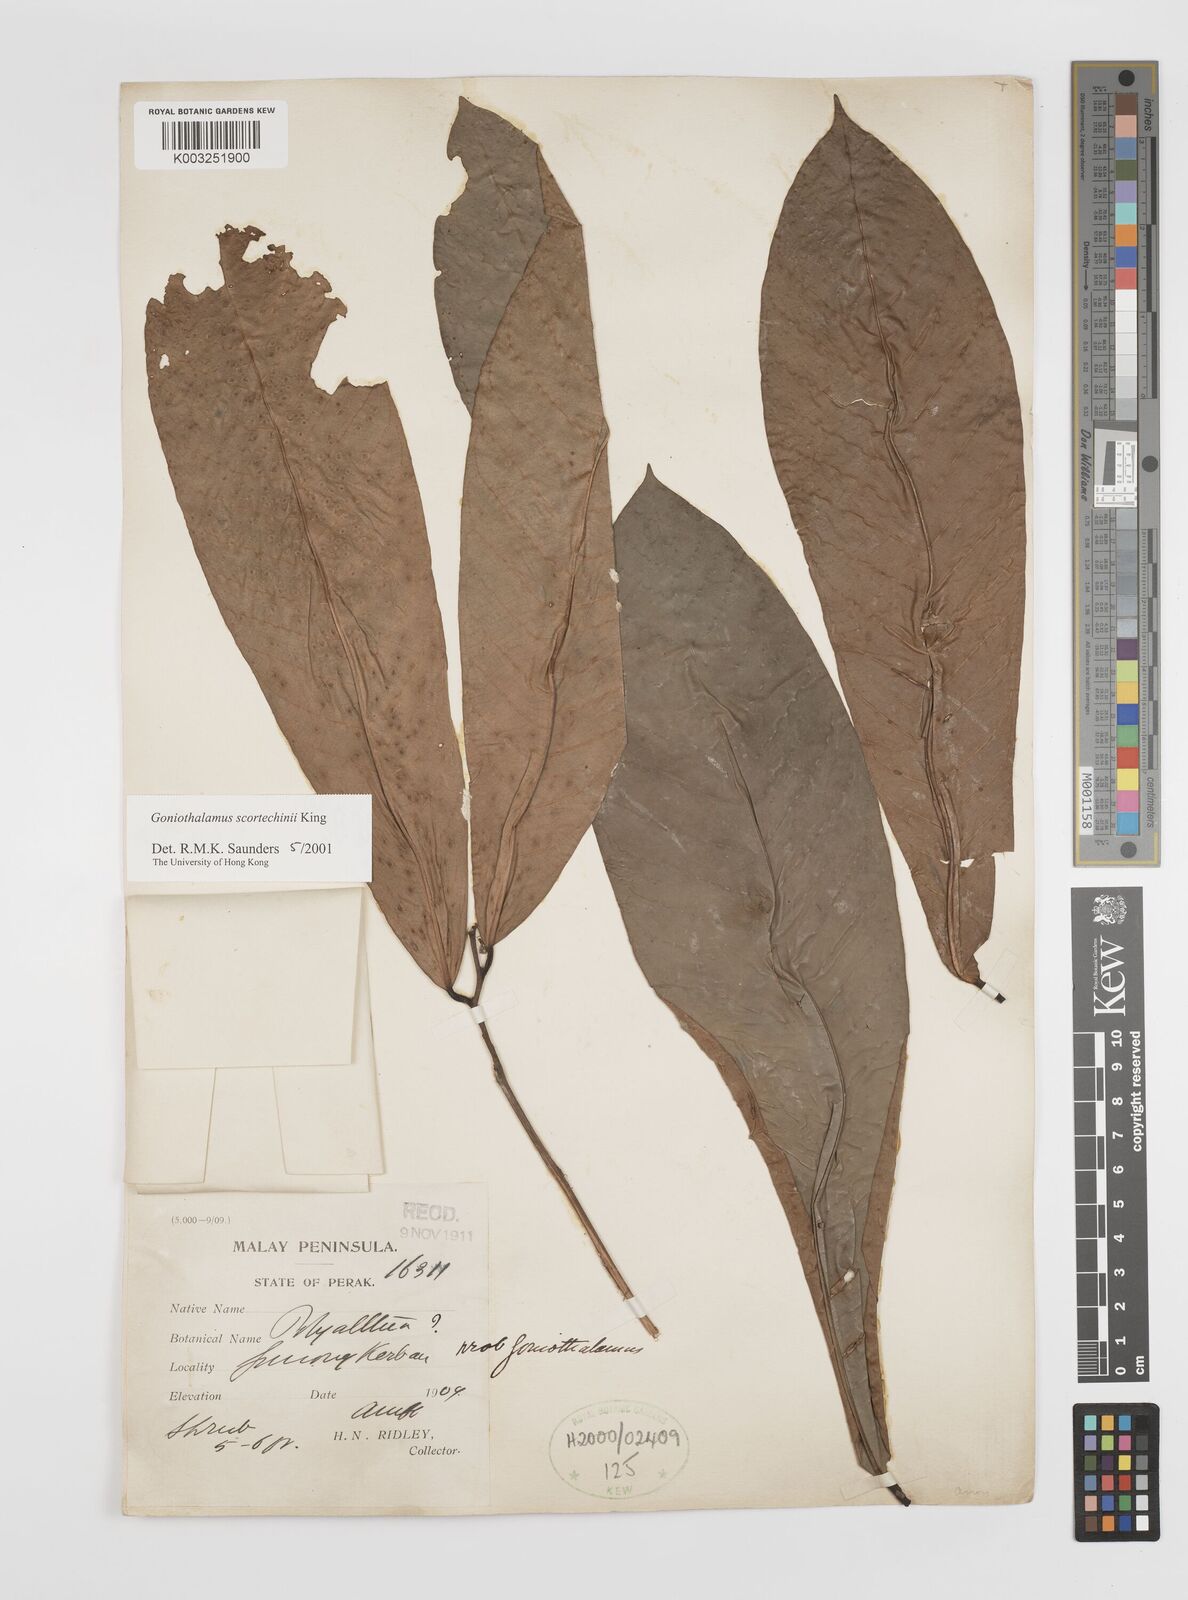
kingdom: Plantae
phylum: Tracheophyta
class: Magnoliopsida
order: Magnoliales
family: Annonaceae
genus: Goniothalamus
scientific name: Goniothalamus scortechinii
